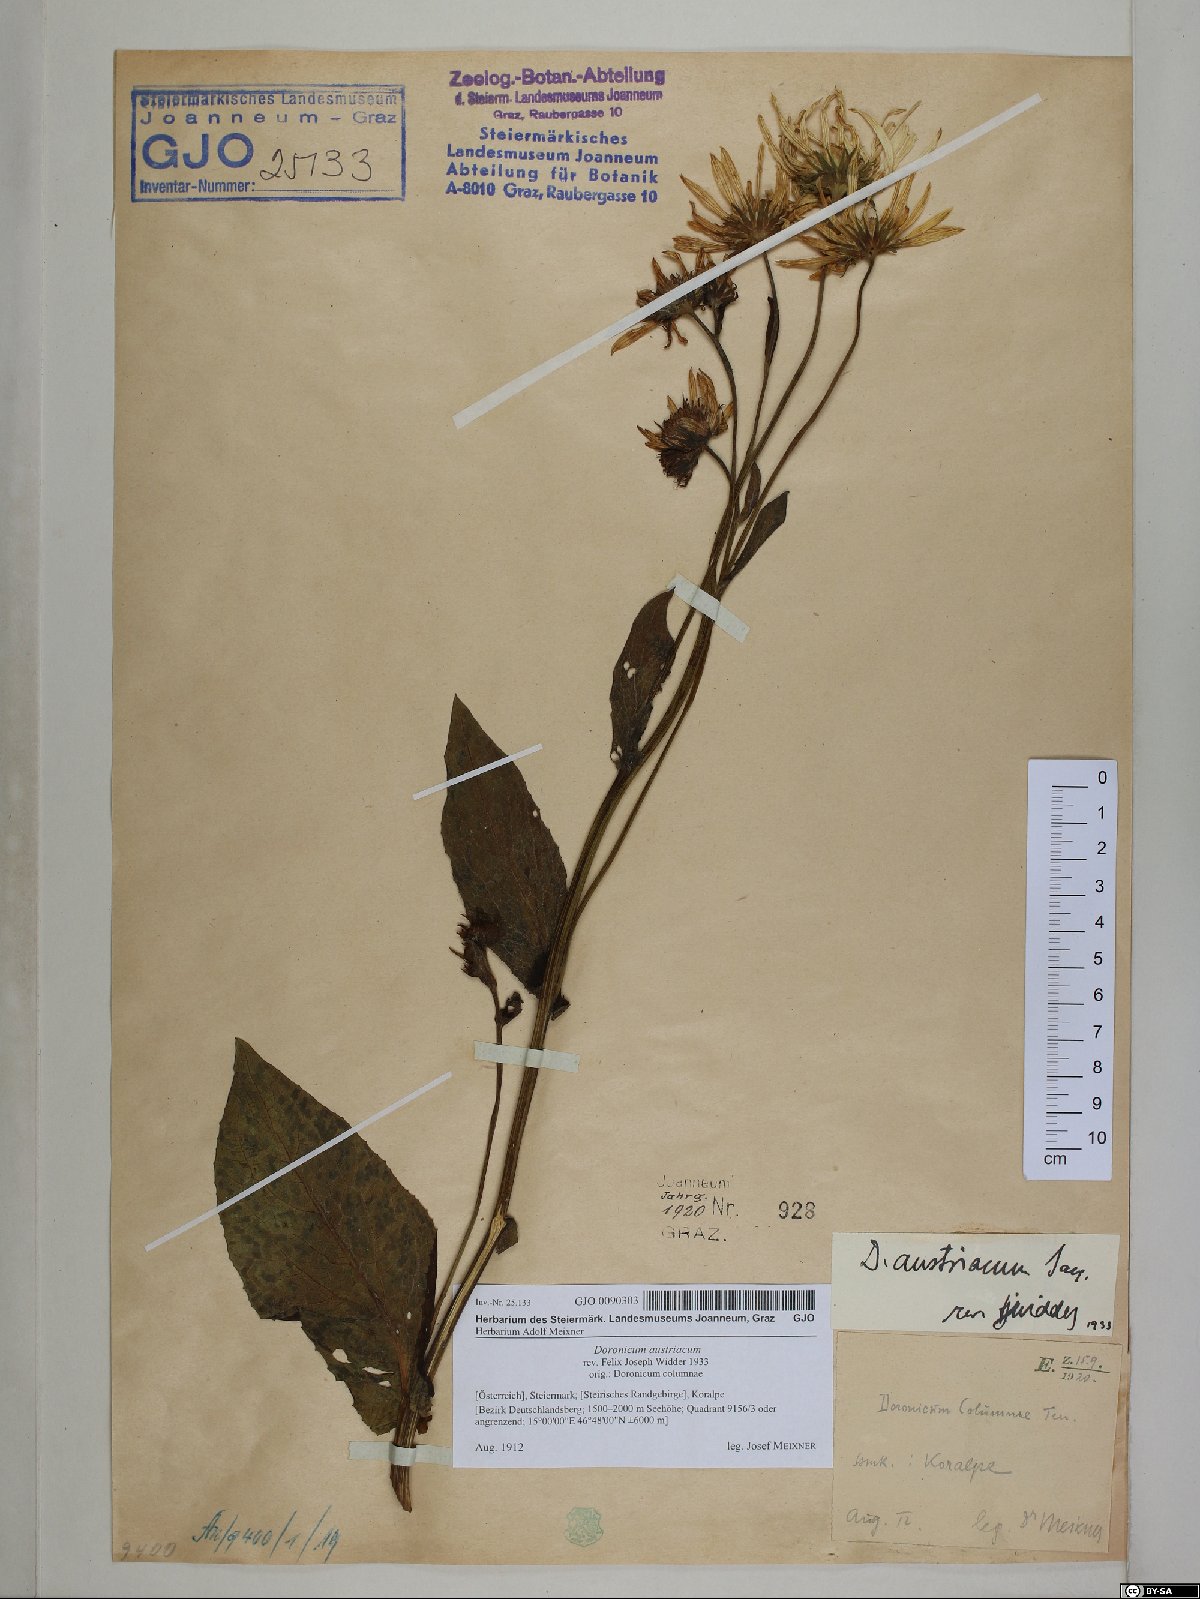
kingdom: Plantae
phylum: Tracheophyta
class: Magnoliopsida
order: Asterales
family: Asteraceae
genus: Doronicum
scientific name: Doronicum austriacum
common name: Austrian leopard's-bane
